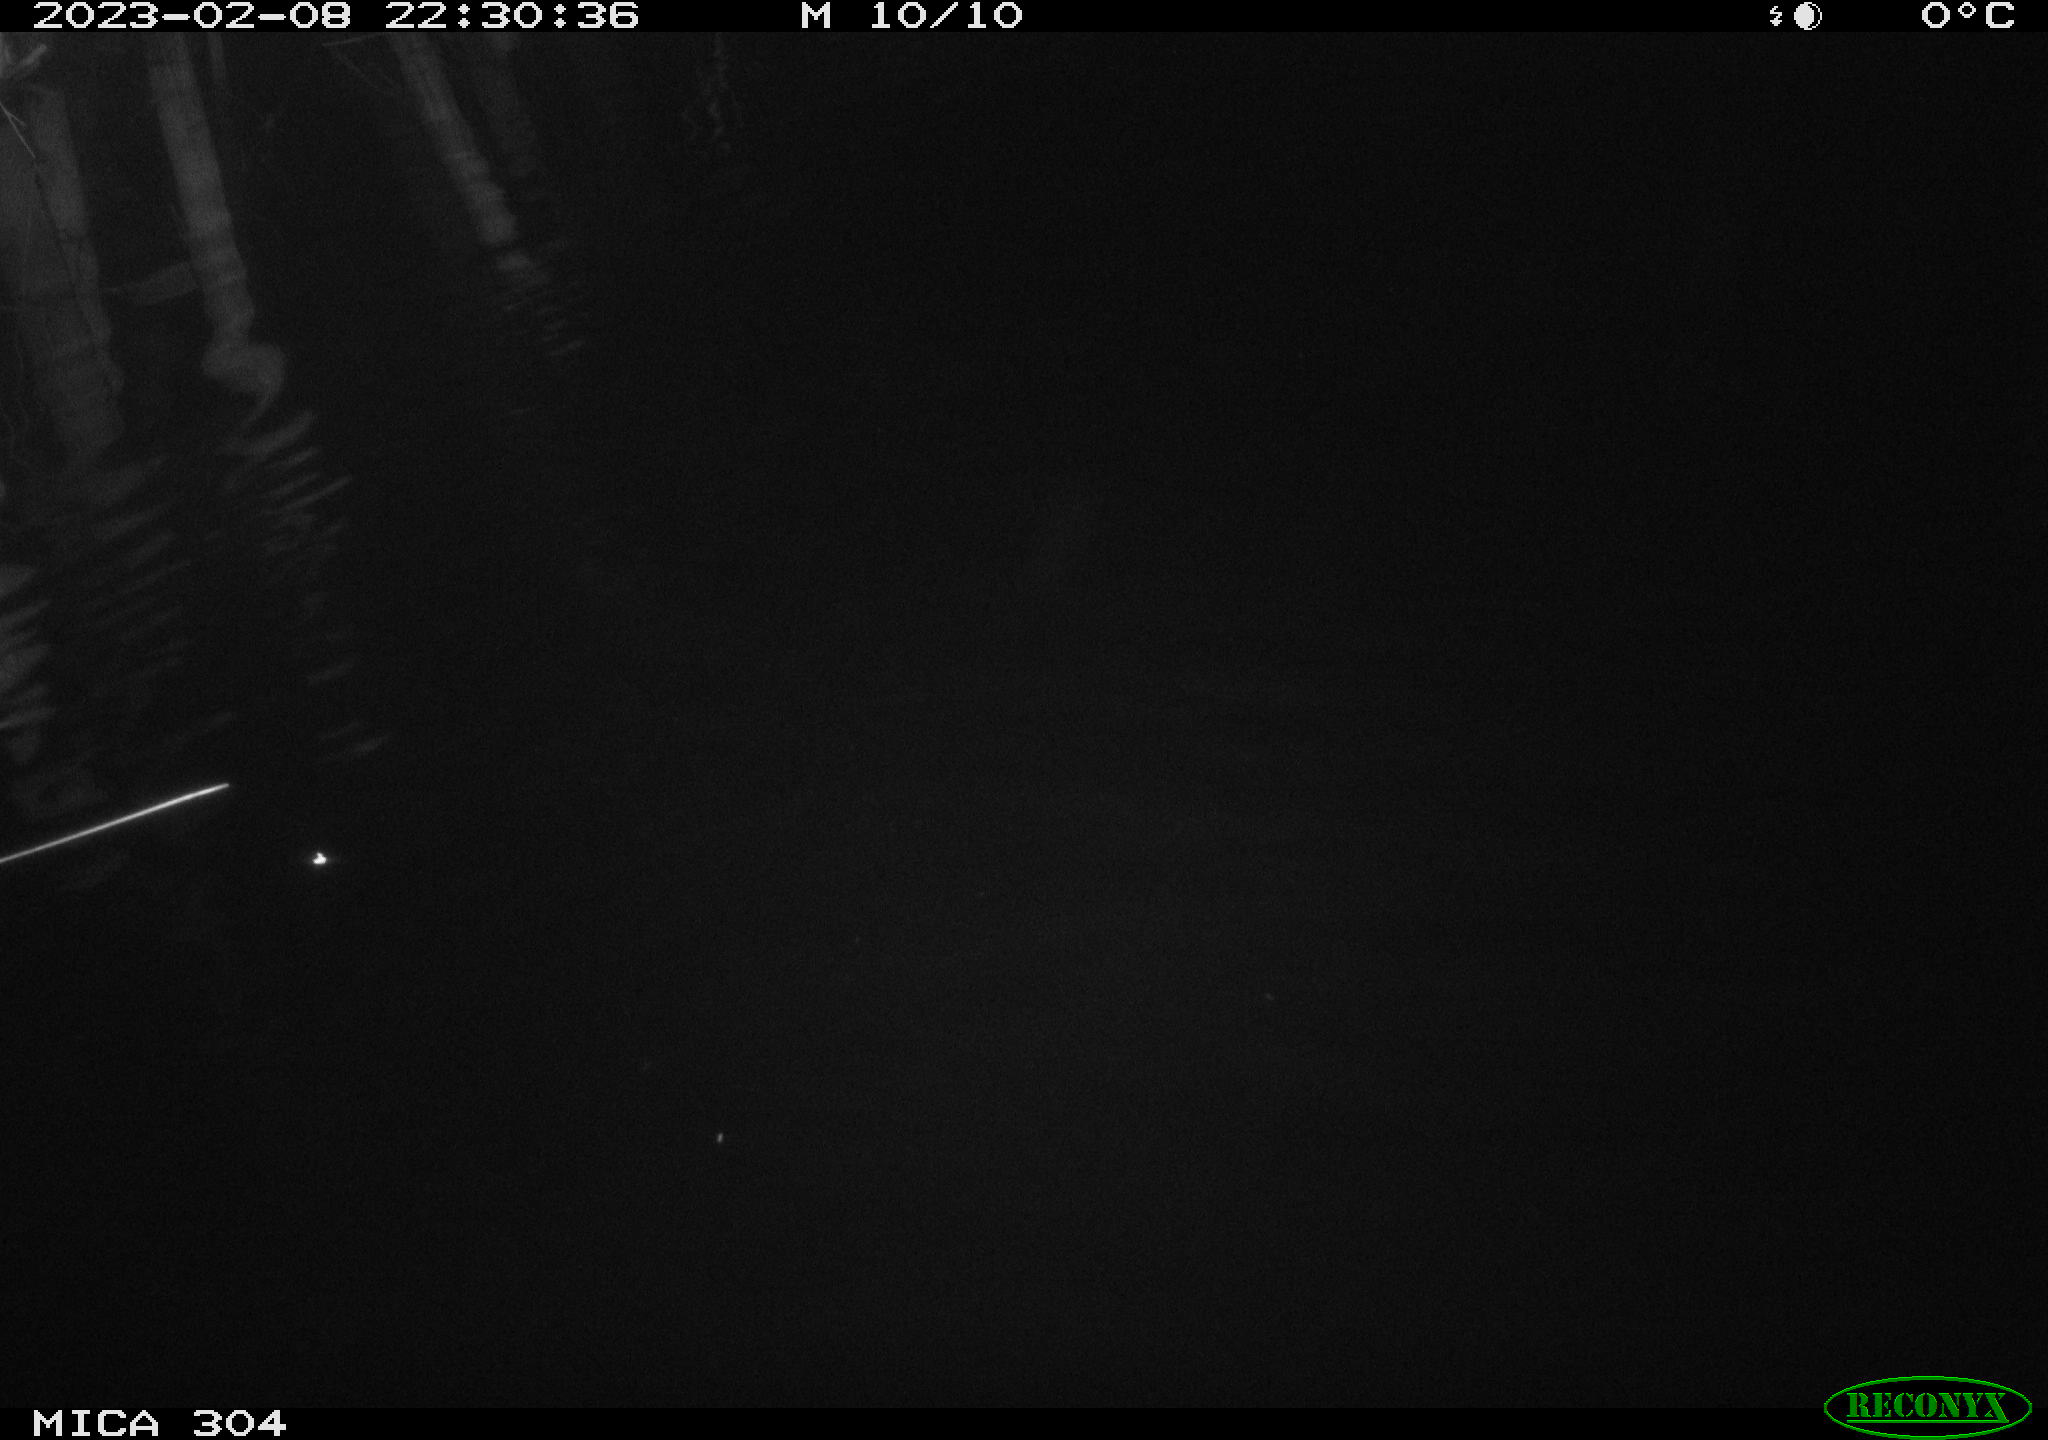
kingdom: Animalia
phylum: Chordata
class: Mammalia
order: Rodentia
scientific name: Rodentia
